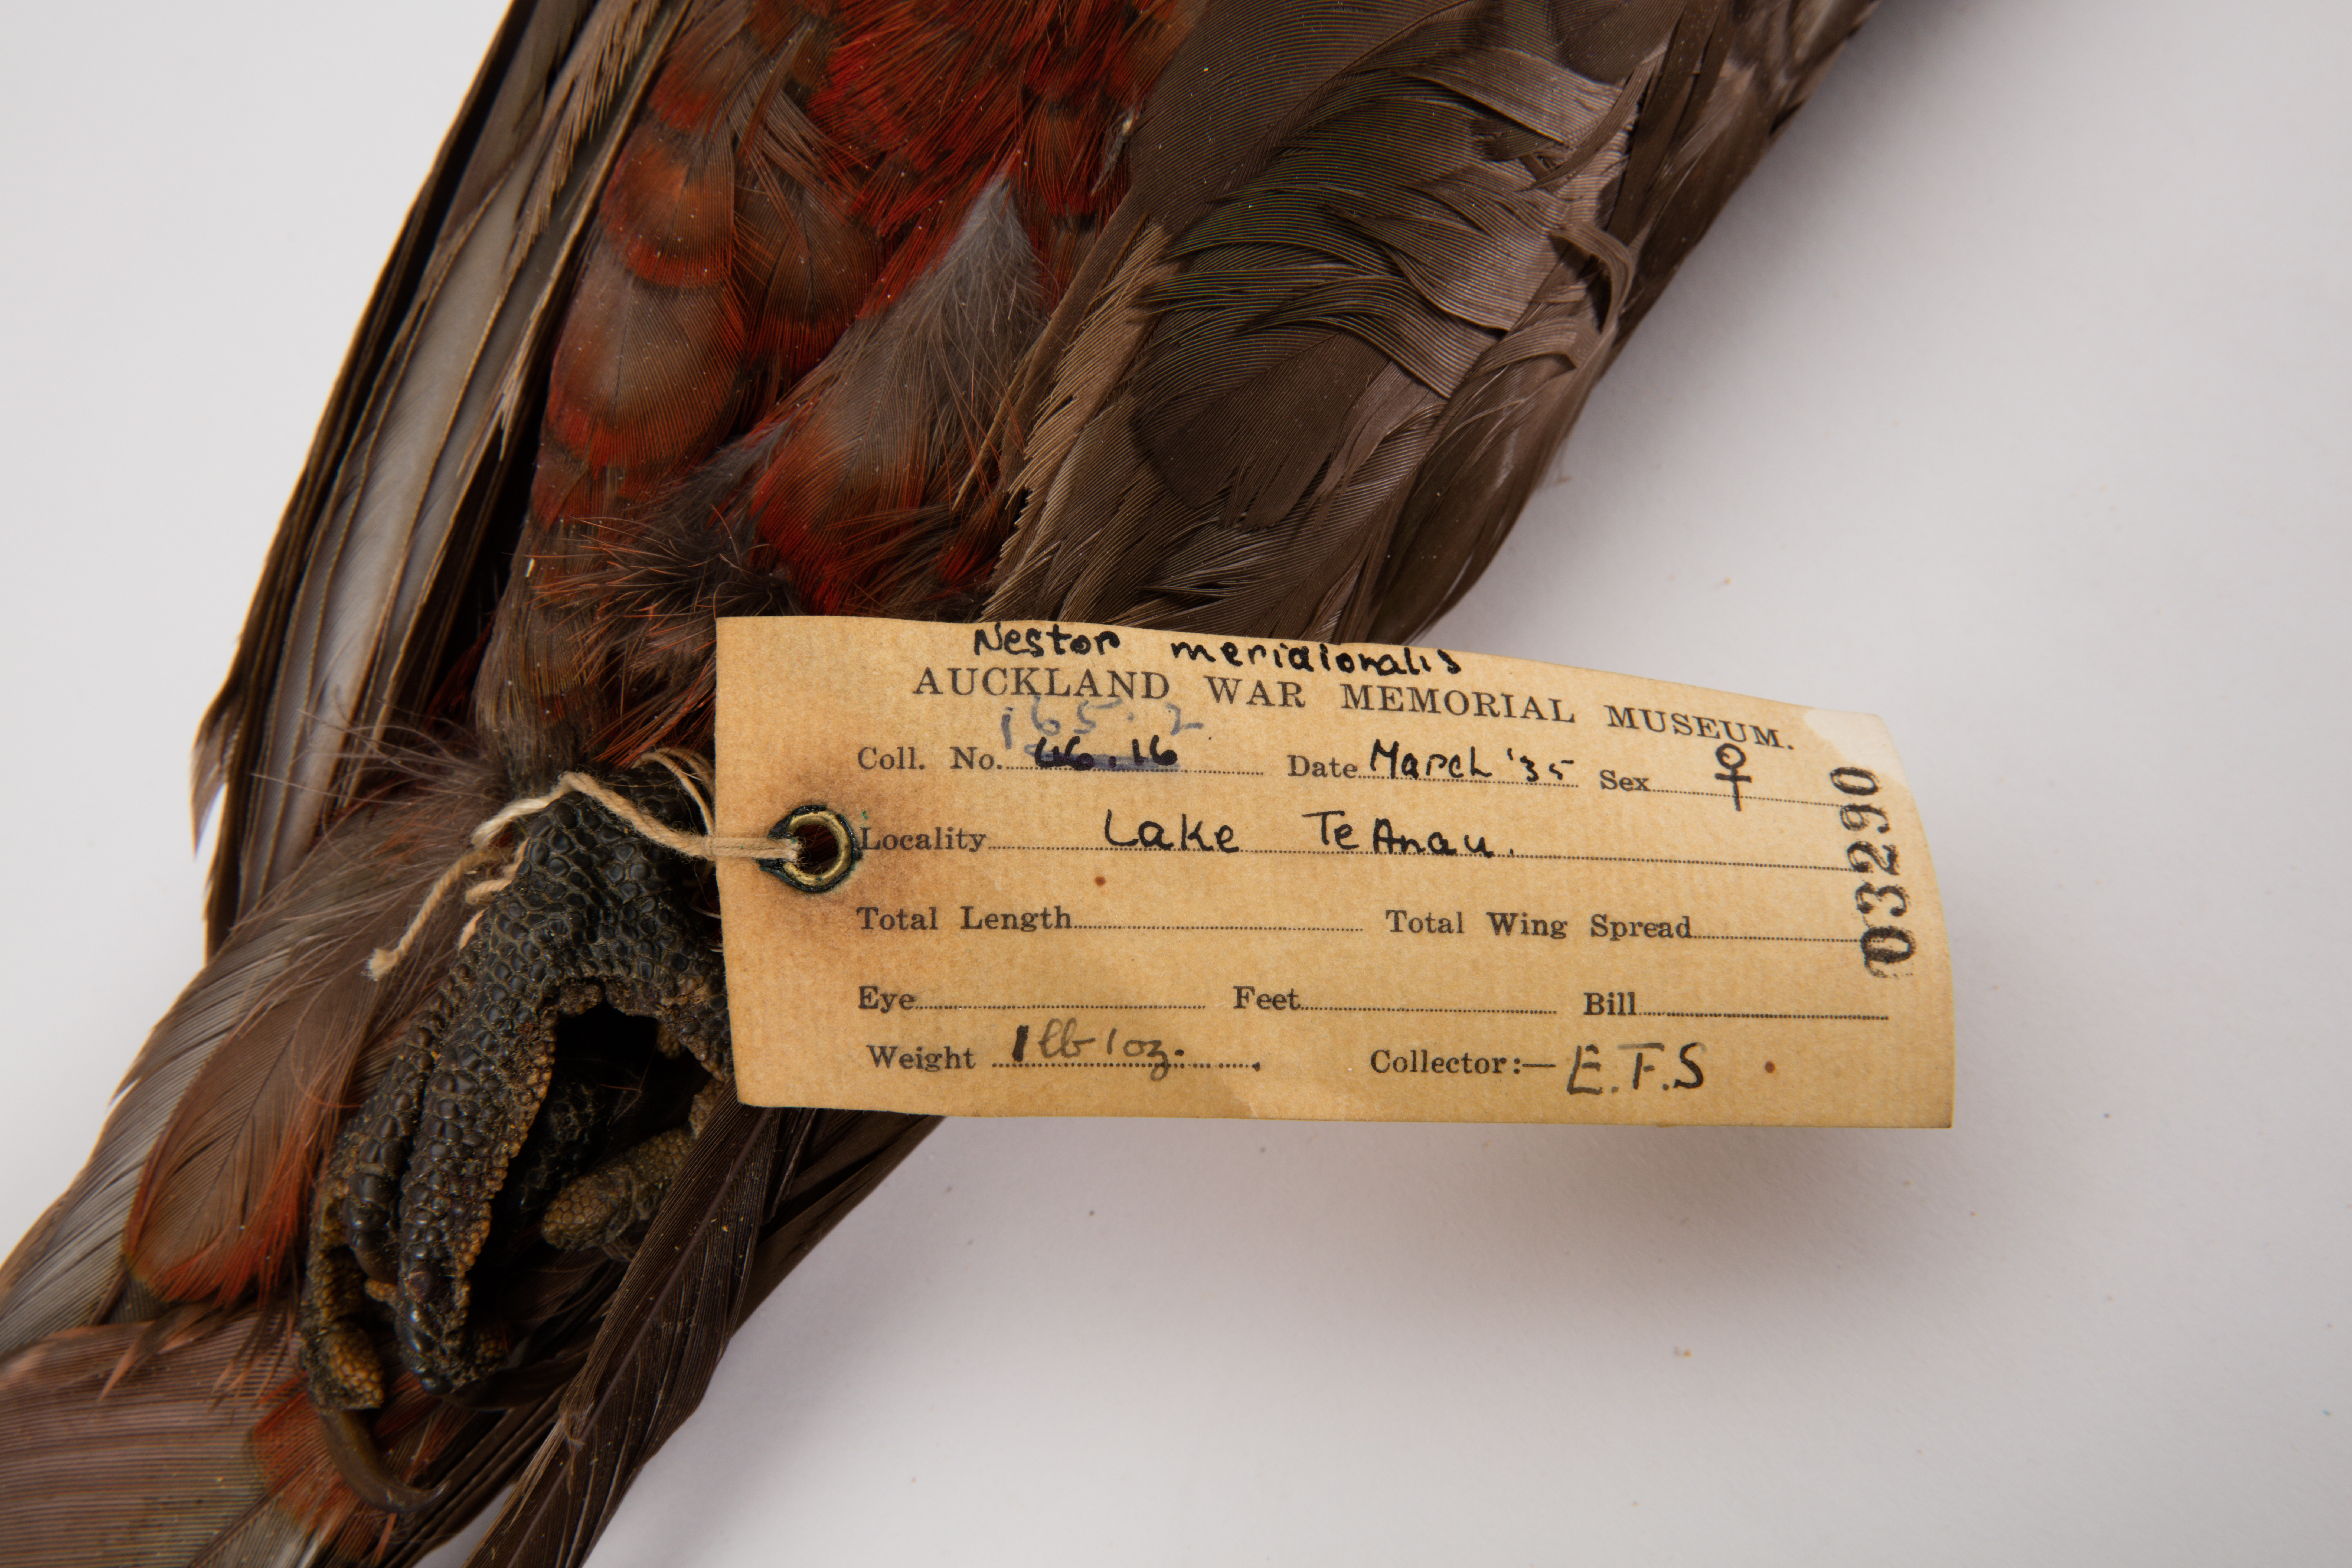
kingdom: Animalia
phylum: Chordata
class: Aves
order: Psittaciformes
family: Psittacidae
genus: Nestor
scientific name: Nestor meridionalis
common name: New zealand kaka
